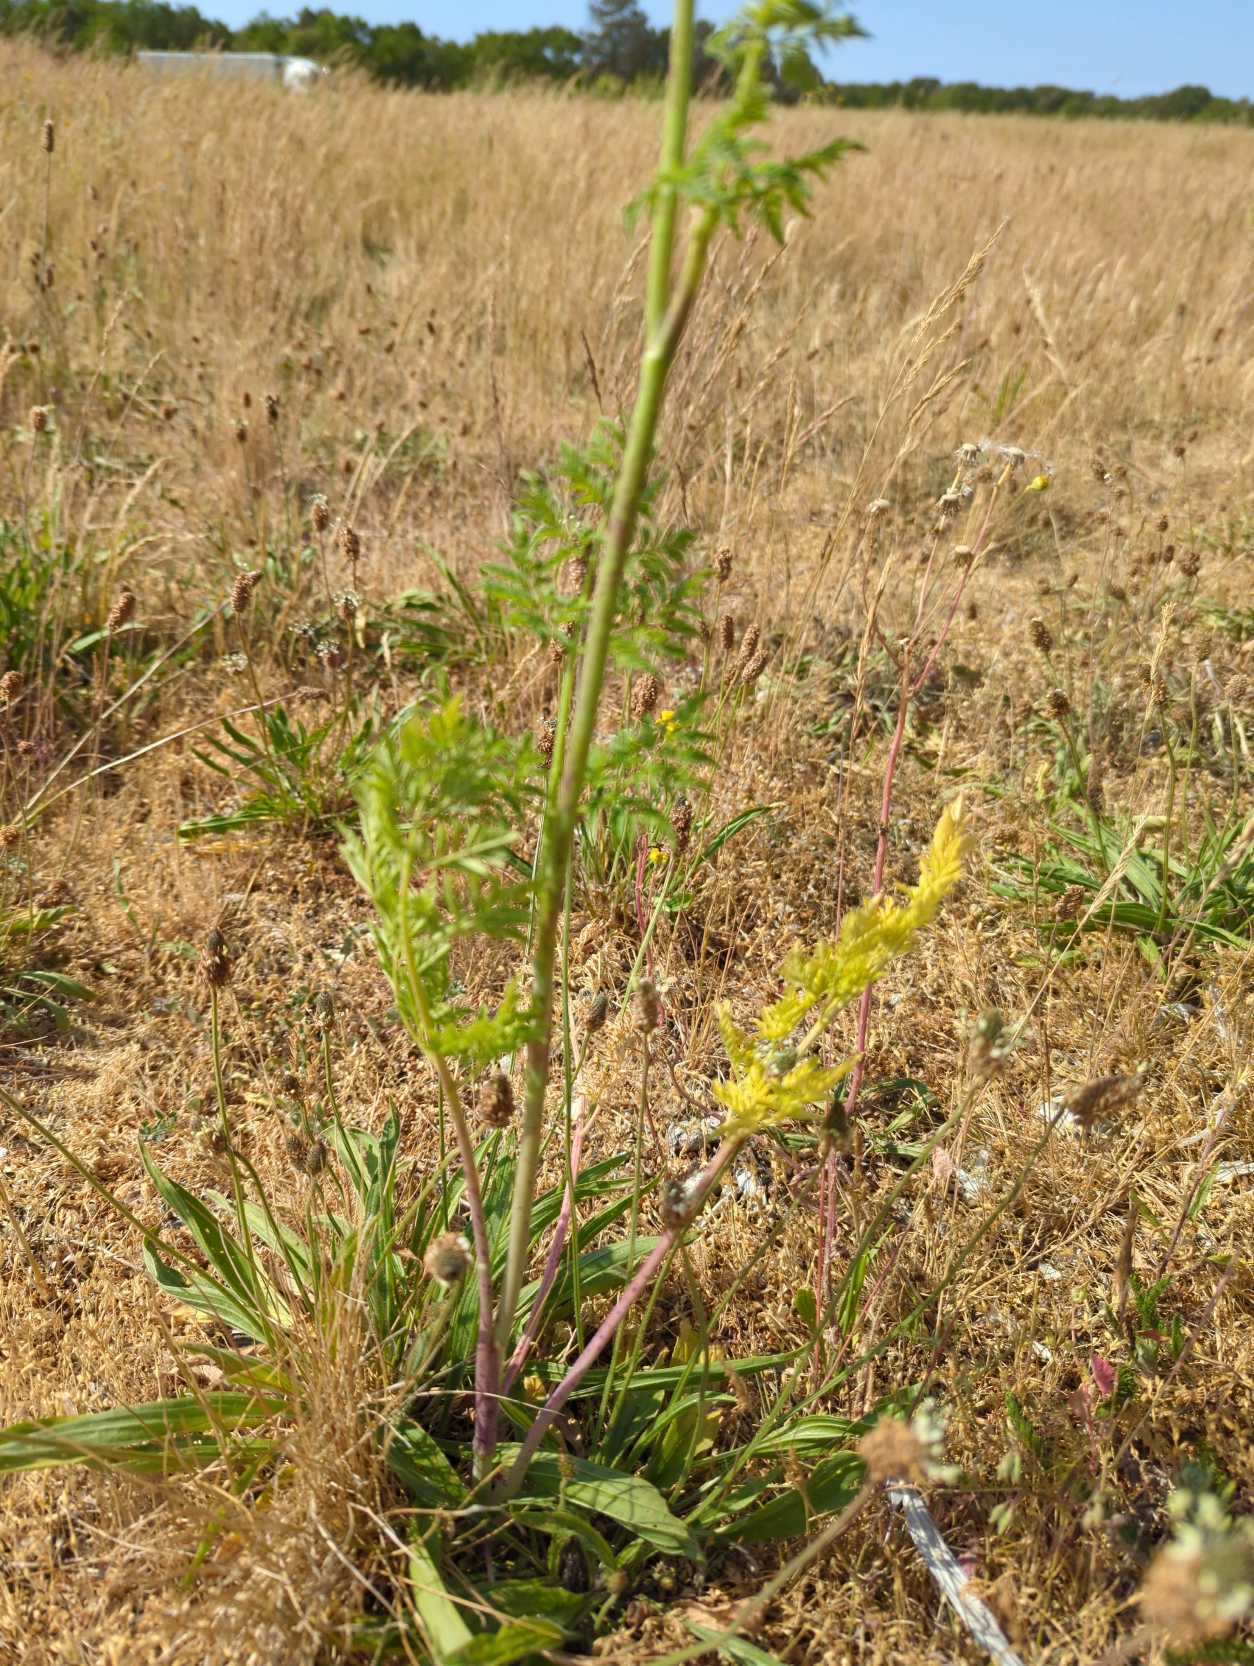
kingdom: Plantae
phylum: Tracheophyta
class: Magnoliopsida
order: Apiales
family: Apiaceae
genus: Conium
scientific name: Conium maculatum
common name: Skarntyde
